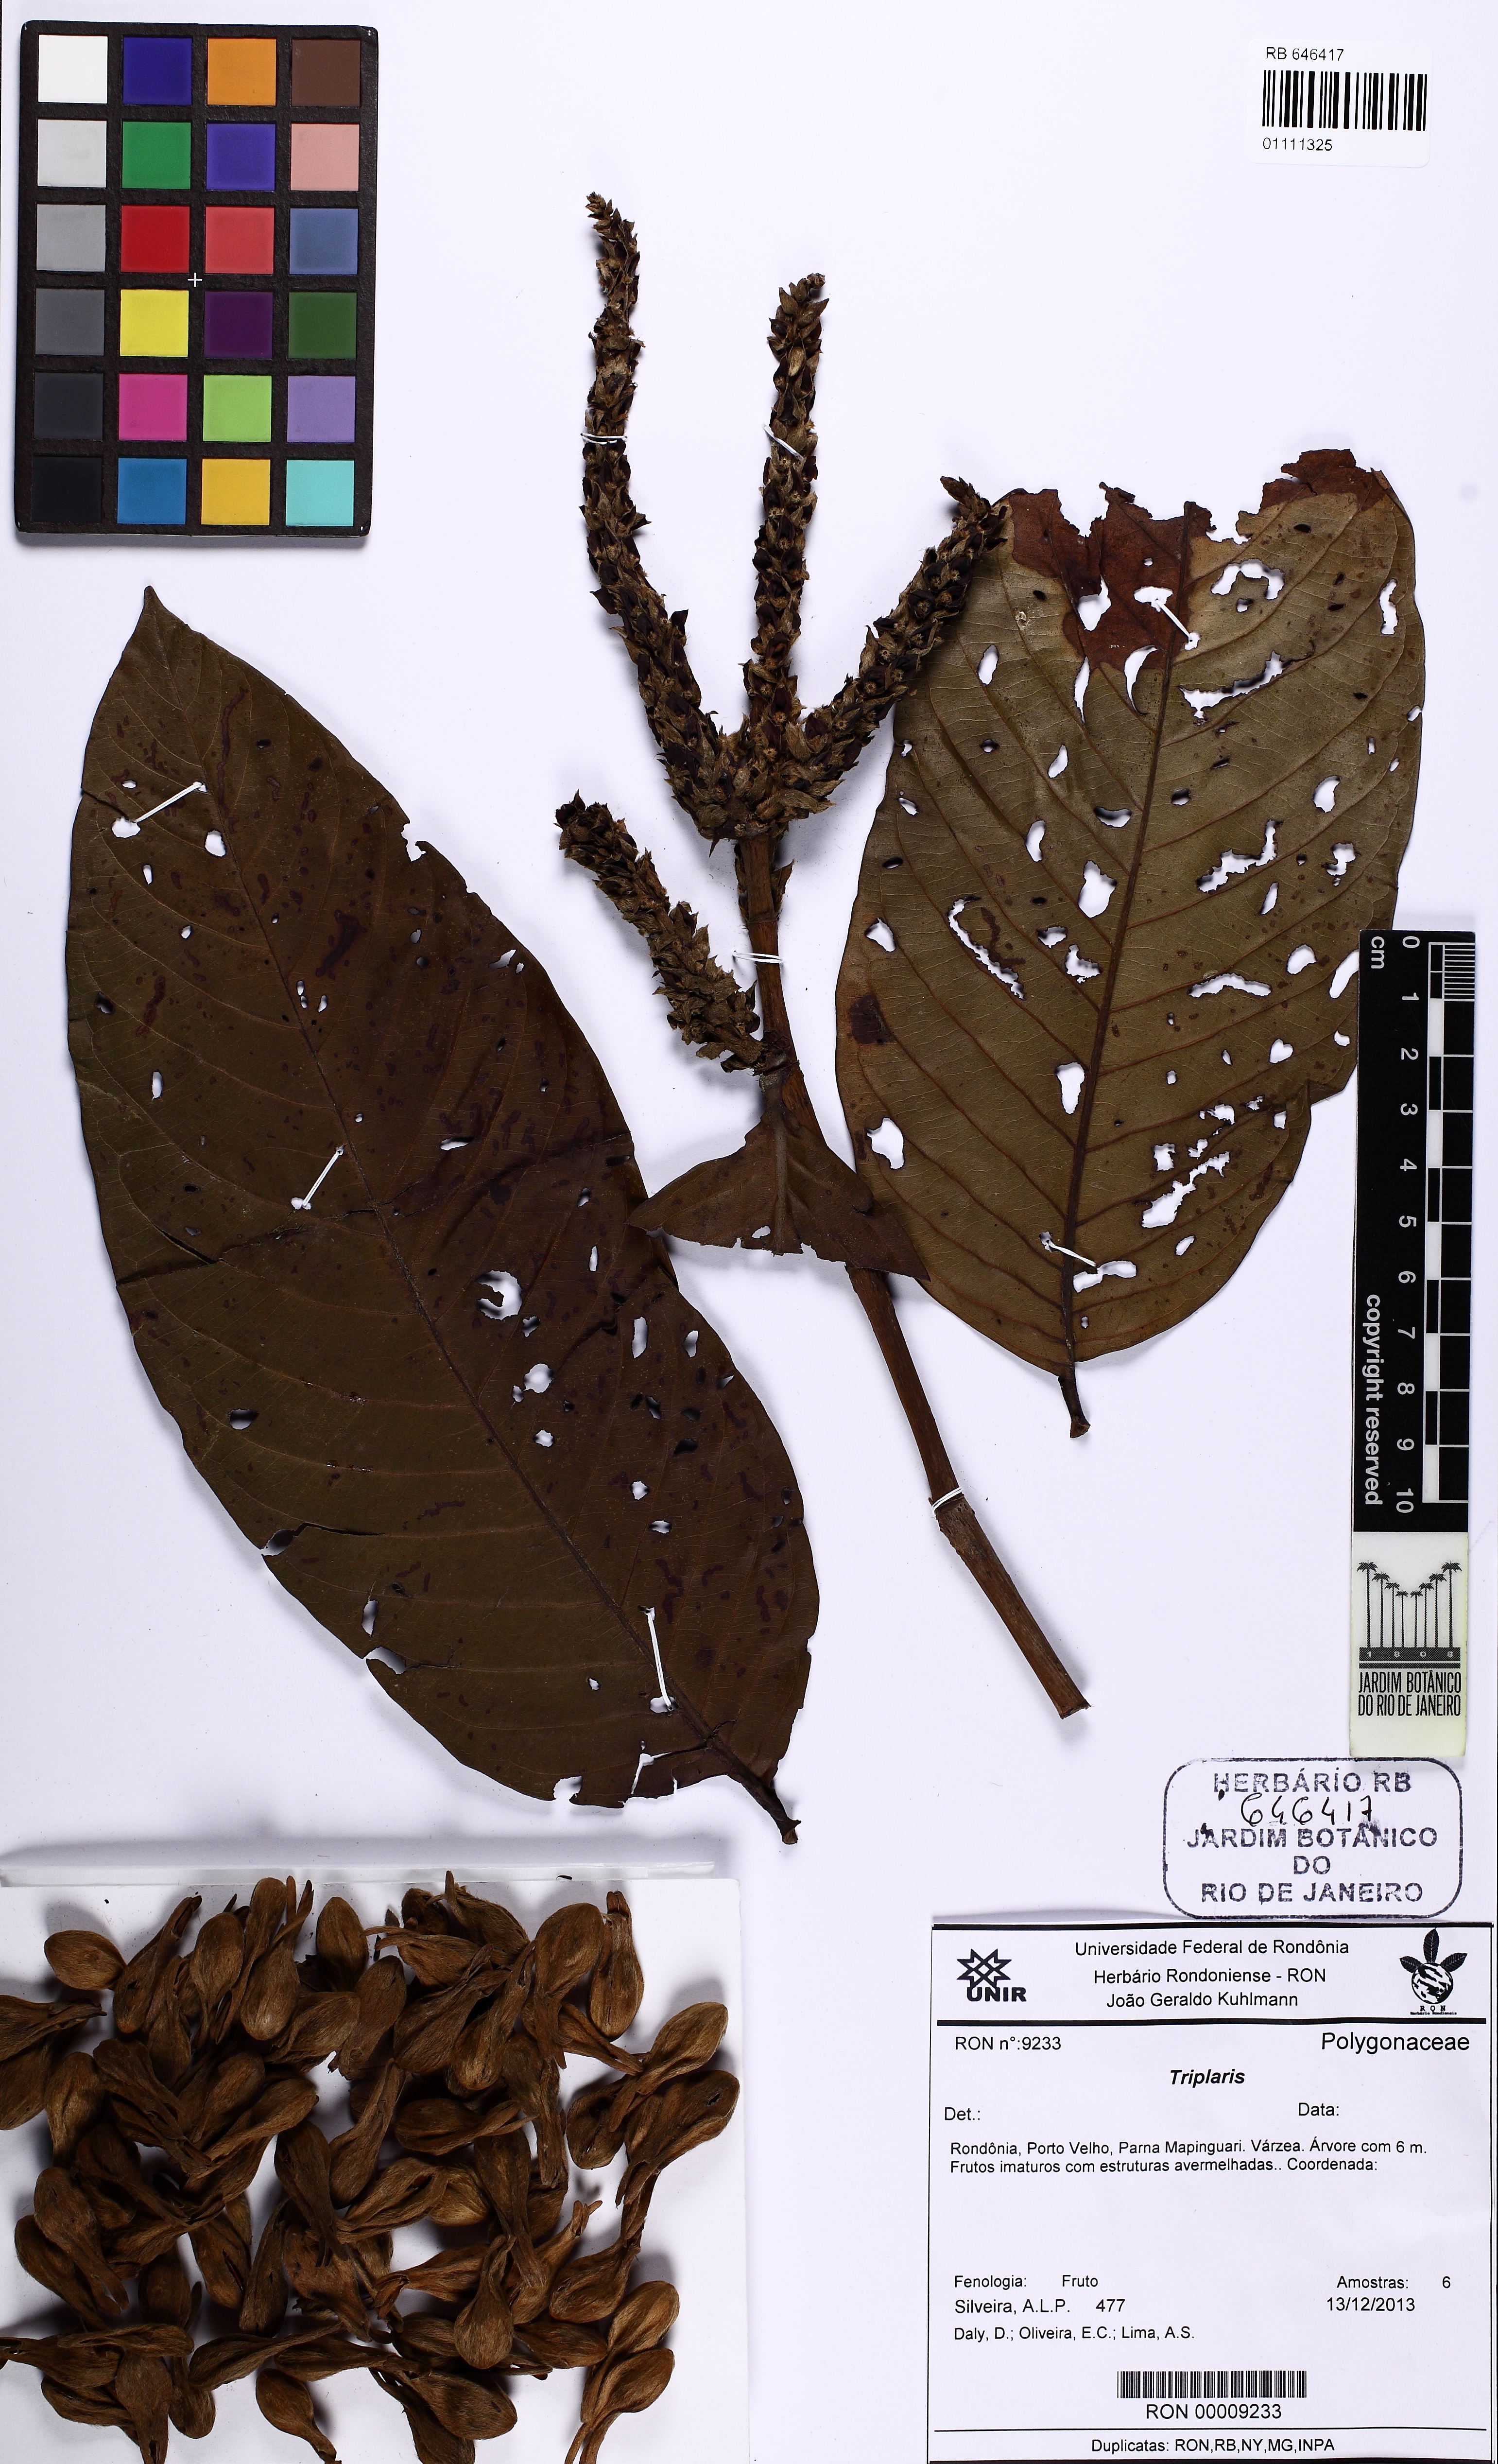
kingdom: Plantae
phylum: Tracheophyta
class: Magnoliopsida
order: Caryophyllales
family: Polygonaceae
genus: Triplaris
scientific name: Triplaris
